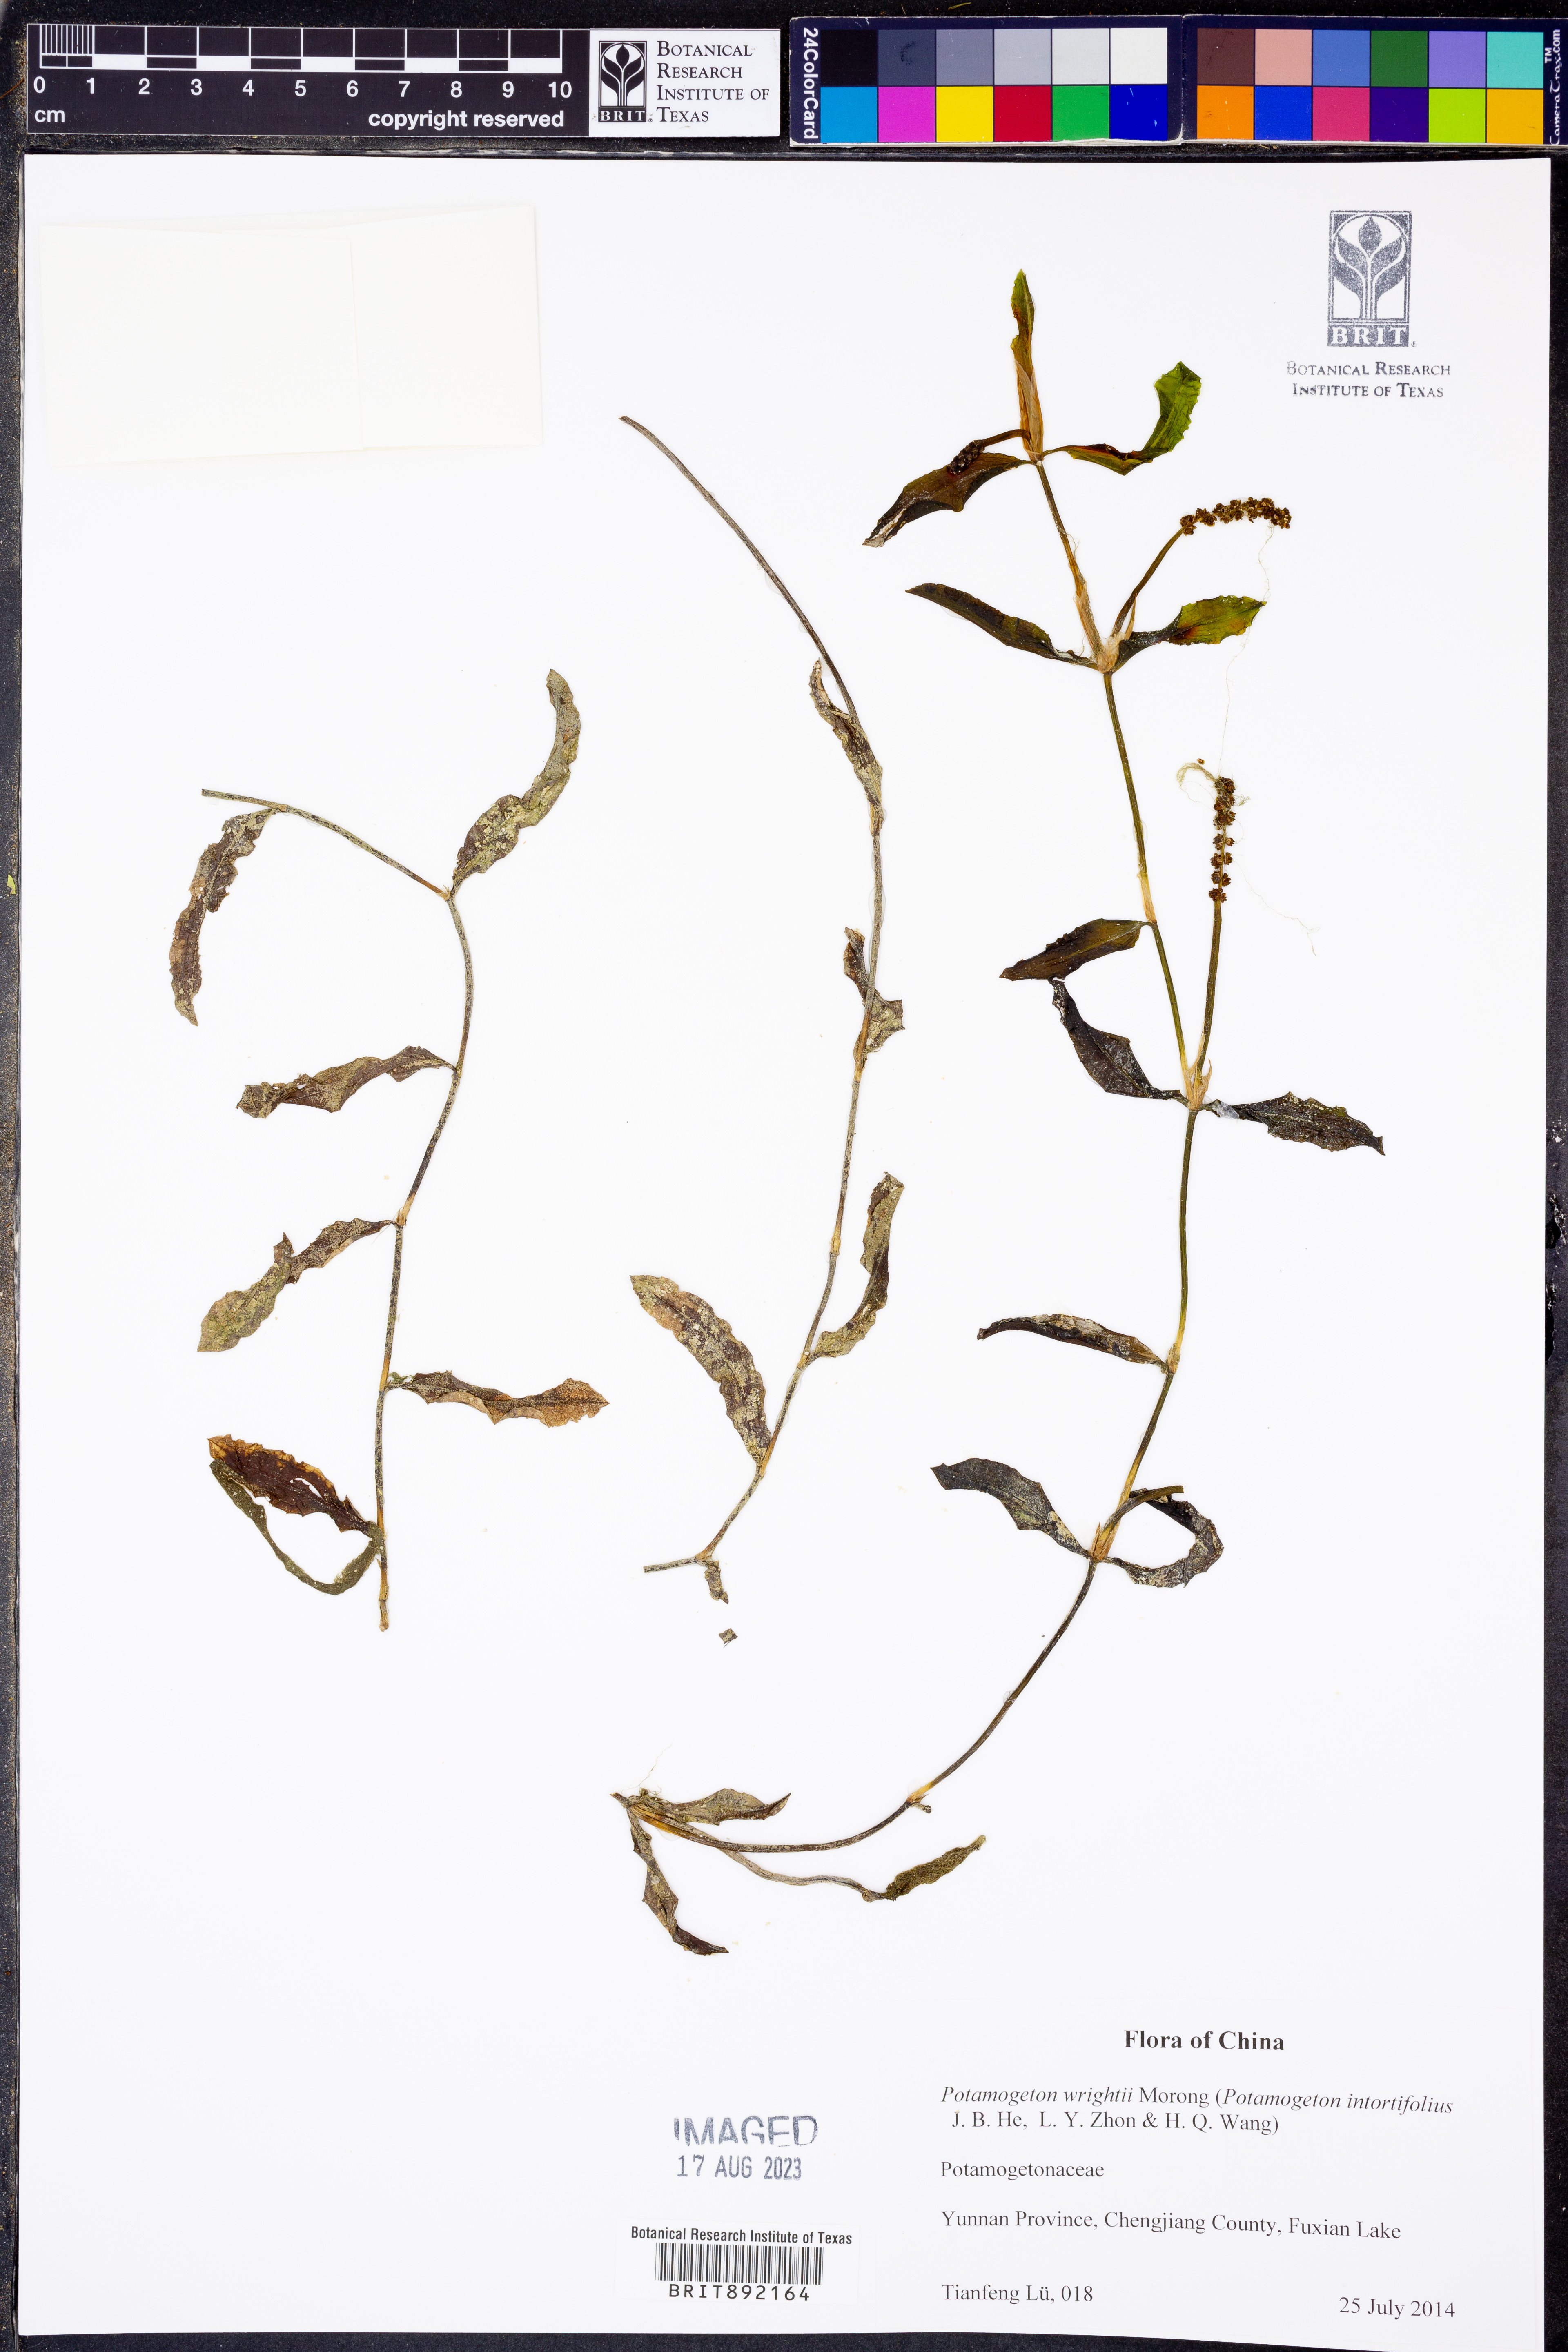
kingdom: Plantae
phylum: Tracheophyta
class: Liliopsida
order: Alismatales
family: Potamogetonaceae
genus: Potamogeton
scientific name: Potamogeton wrightii
